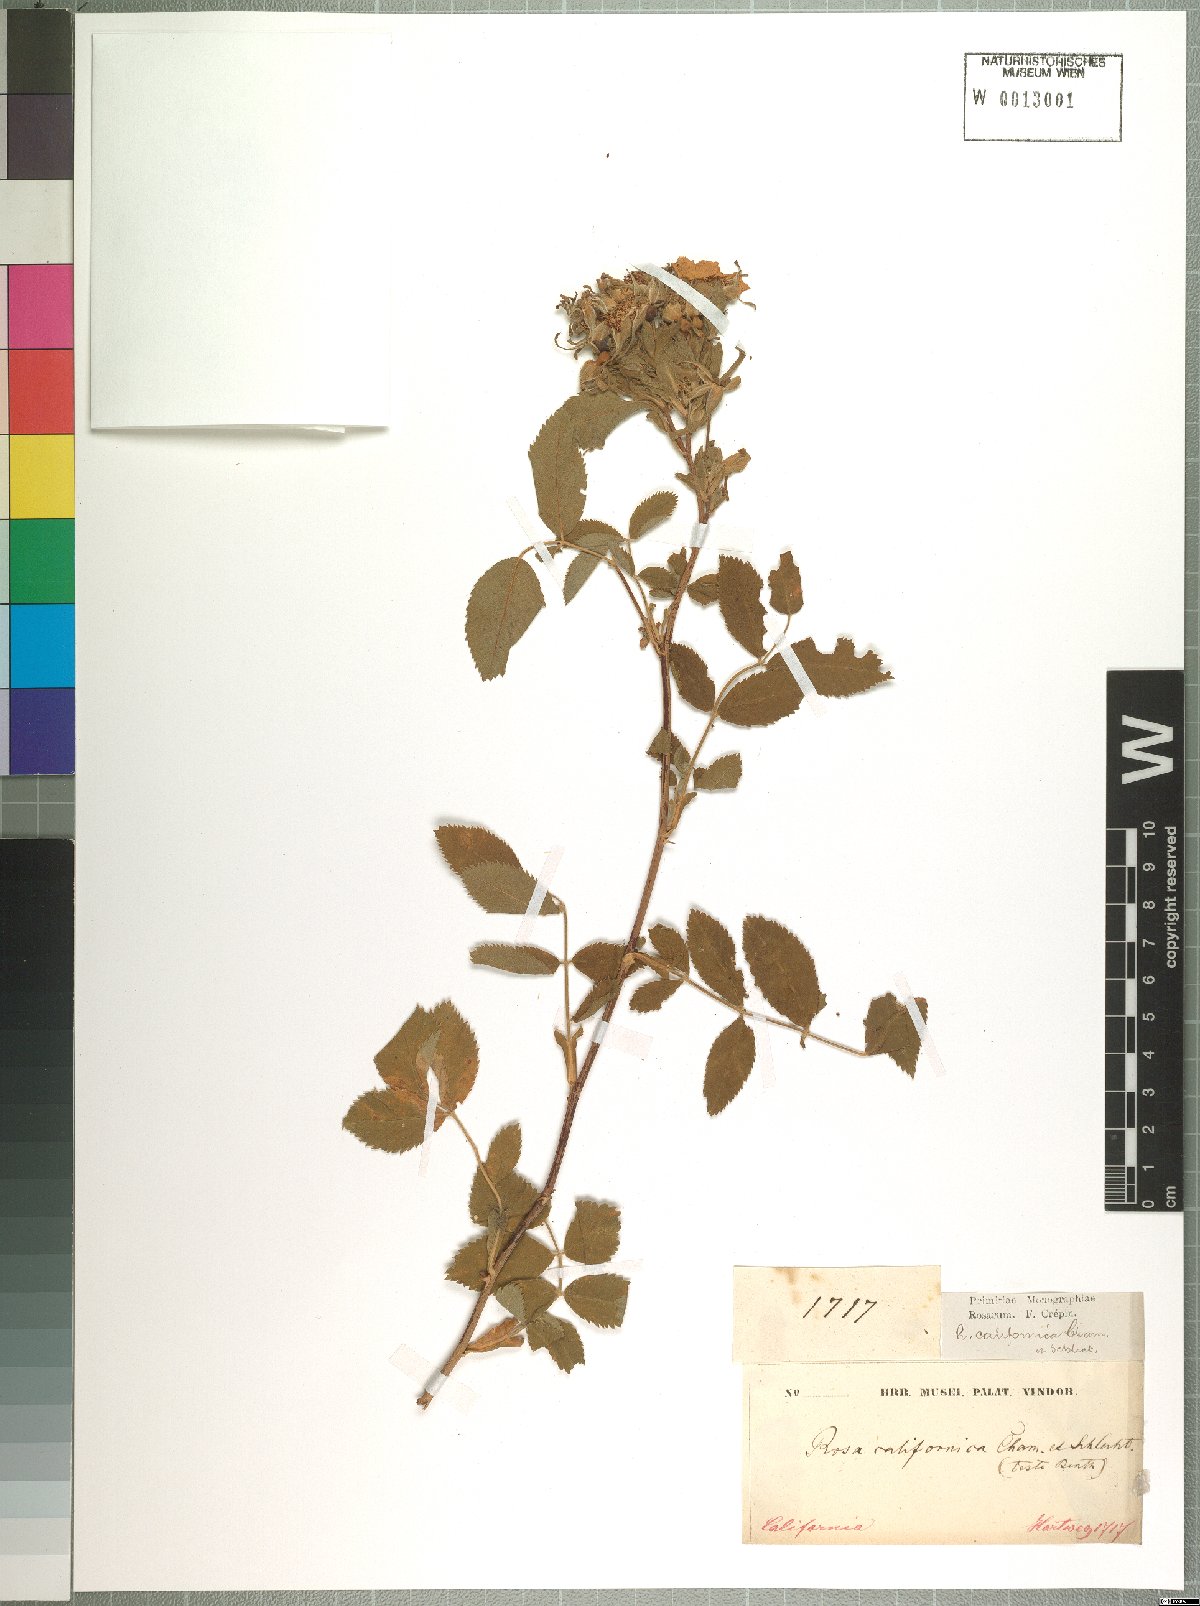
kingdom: Plantae
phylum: Tracheophyta
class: Magnoliopsida
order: Rosales
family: Rosaceae
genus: Rosa
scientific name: Rosa californica
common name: California rose
